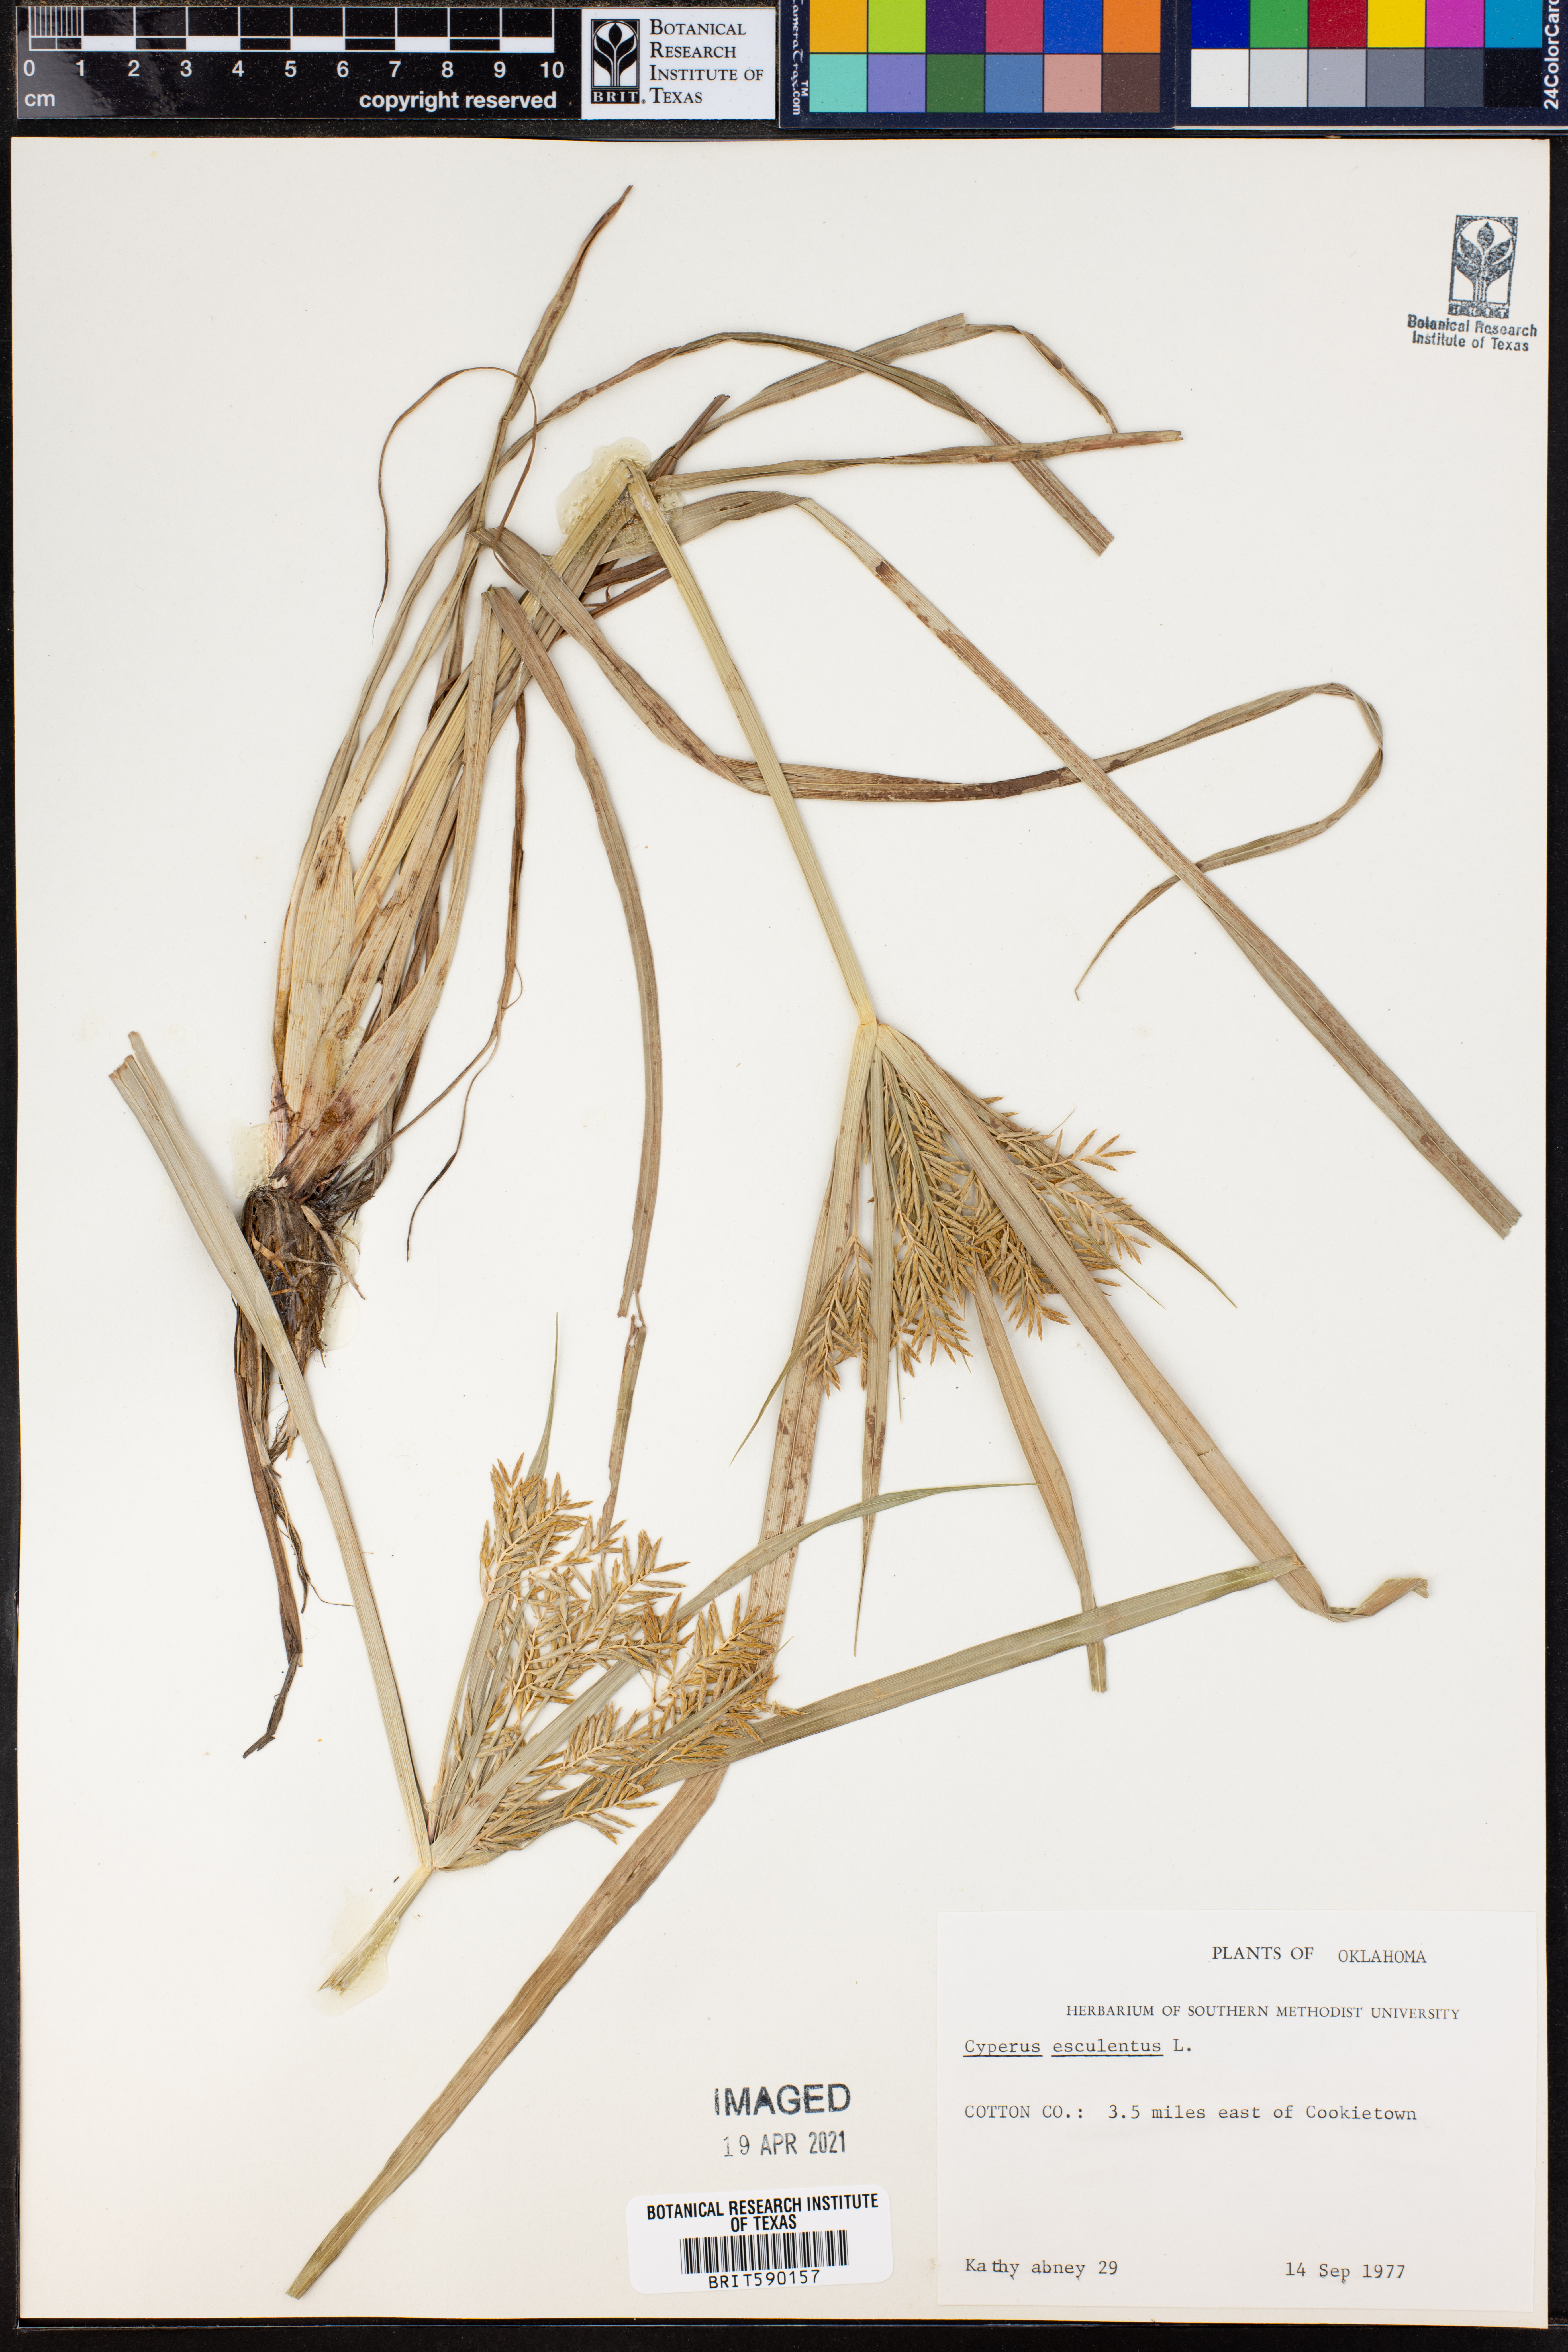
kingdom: Plantae
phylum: Tracheophyta
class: Liliopsida
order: Poales
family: Cyperaceae
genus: Cyperus
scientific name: Cyperus esculentus
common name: Yellow nutsedge
